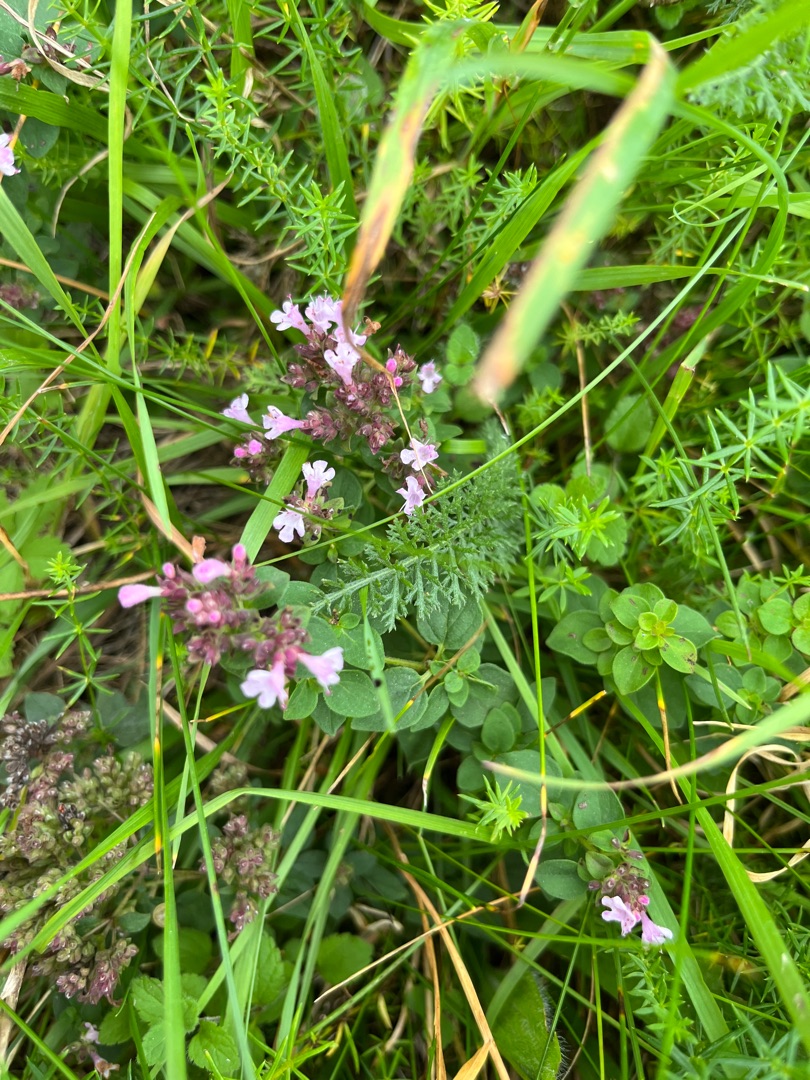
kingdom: Plantae
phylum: Tracheophyta
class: Magnoliopsida
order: Lamiales
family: Lamiaceae
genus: Origanum
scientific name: Origanum vulgare
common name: Merian
